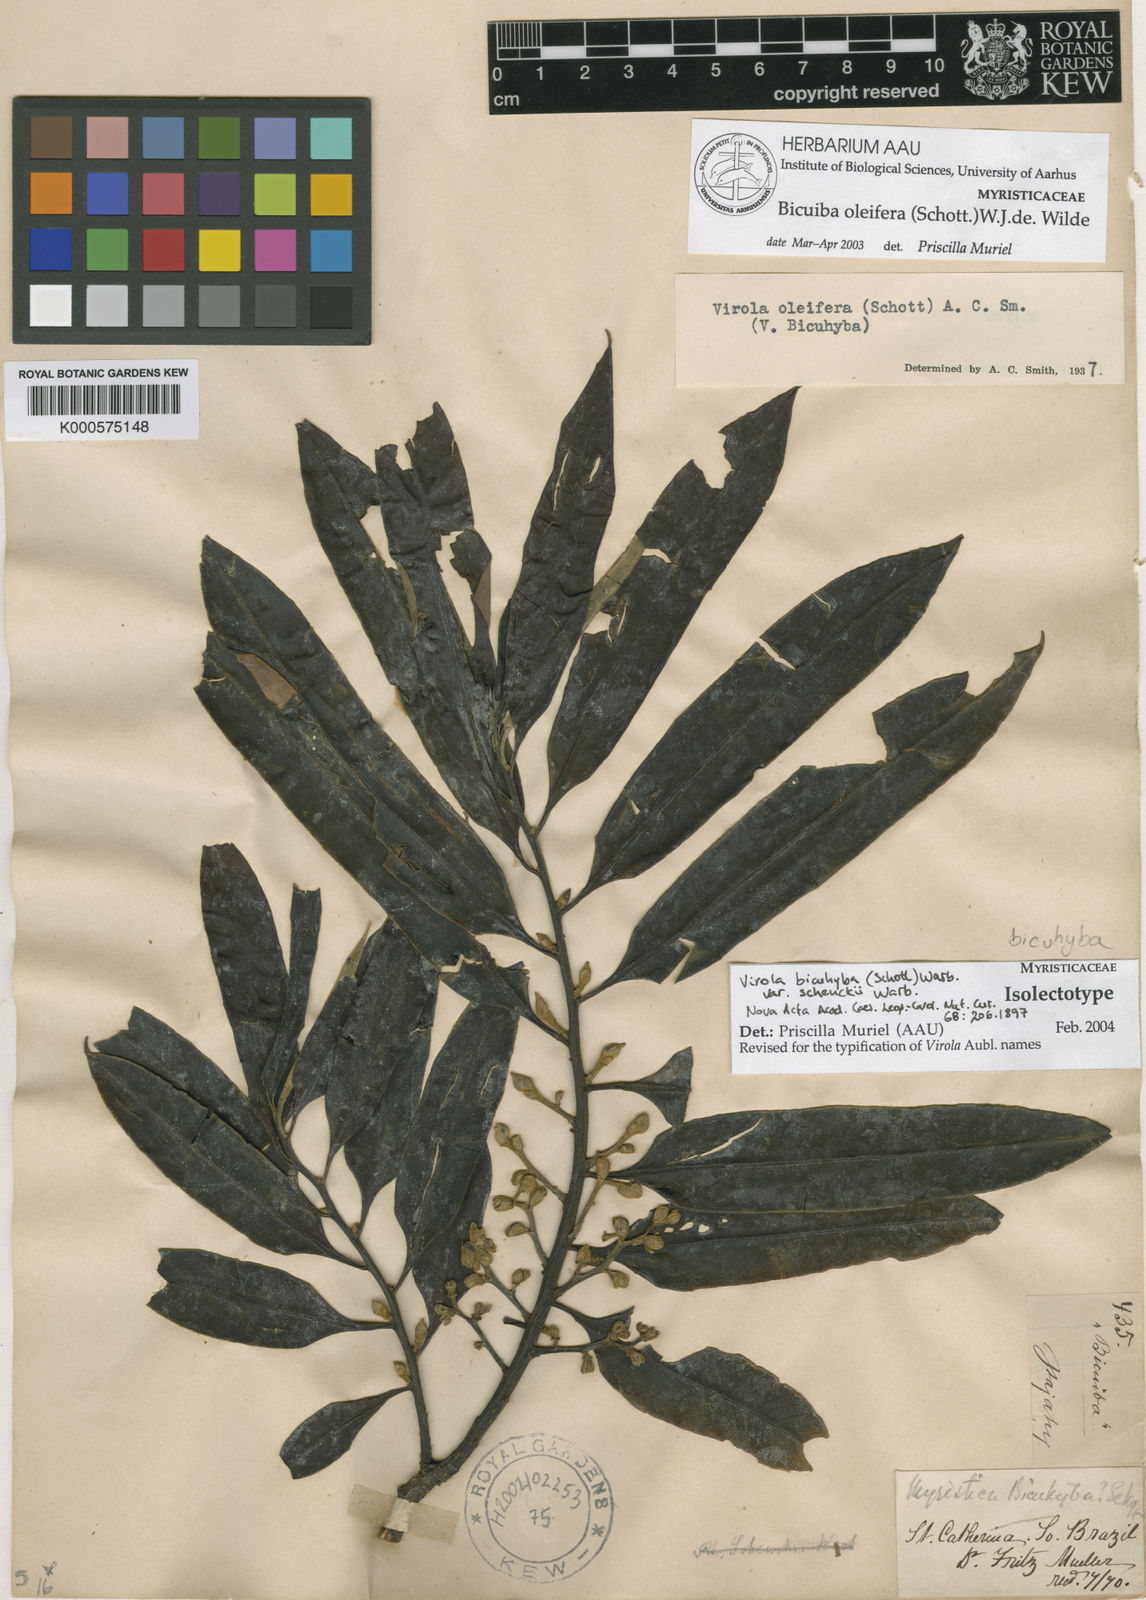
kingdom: Plantae
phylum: Tracheophyta
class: Magnoliopsida
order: Magnoliales
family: Myristicaceae
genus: Virola
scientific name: Virola bicuhyba
